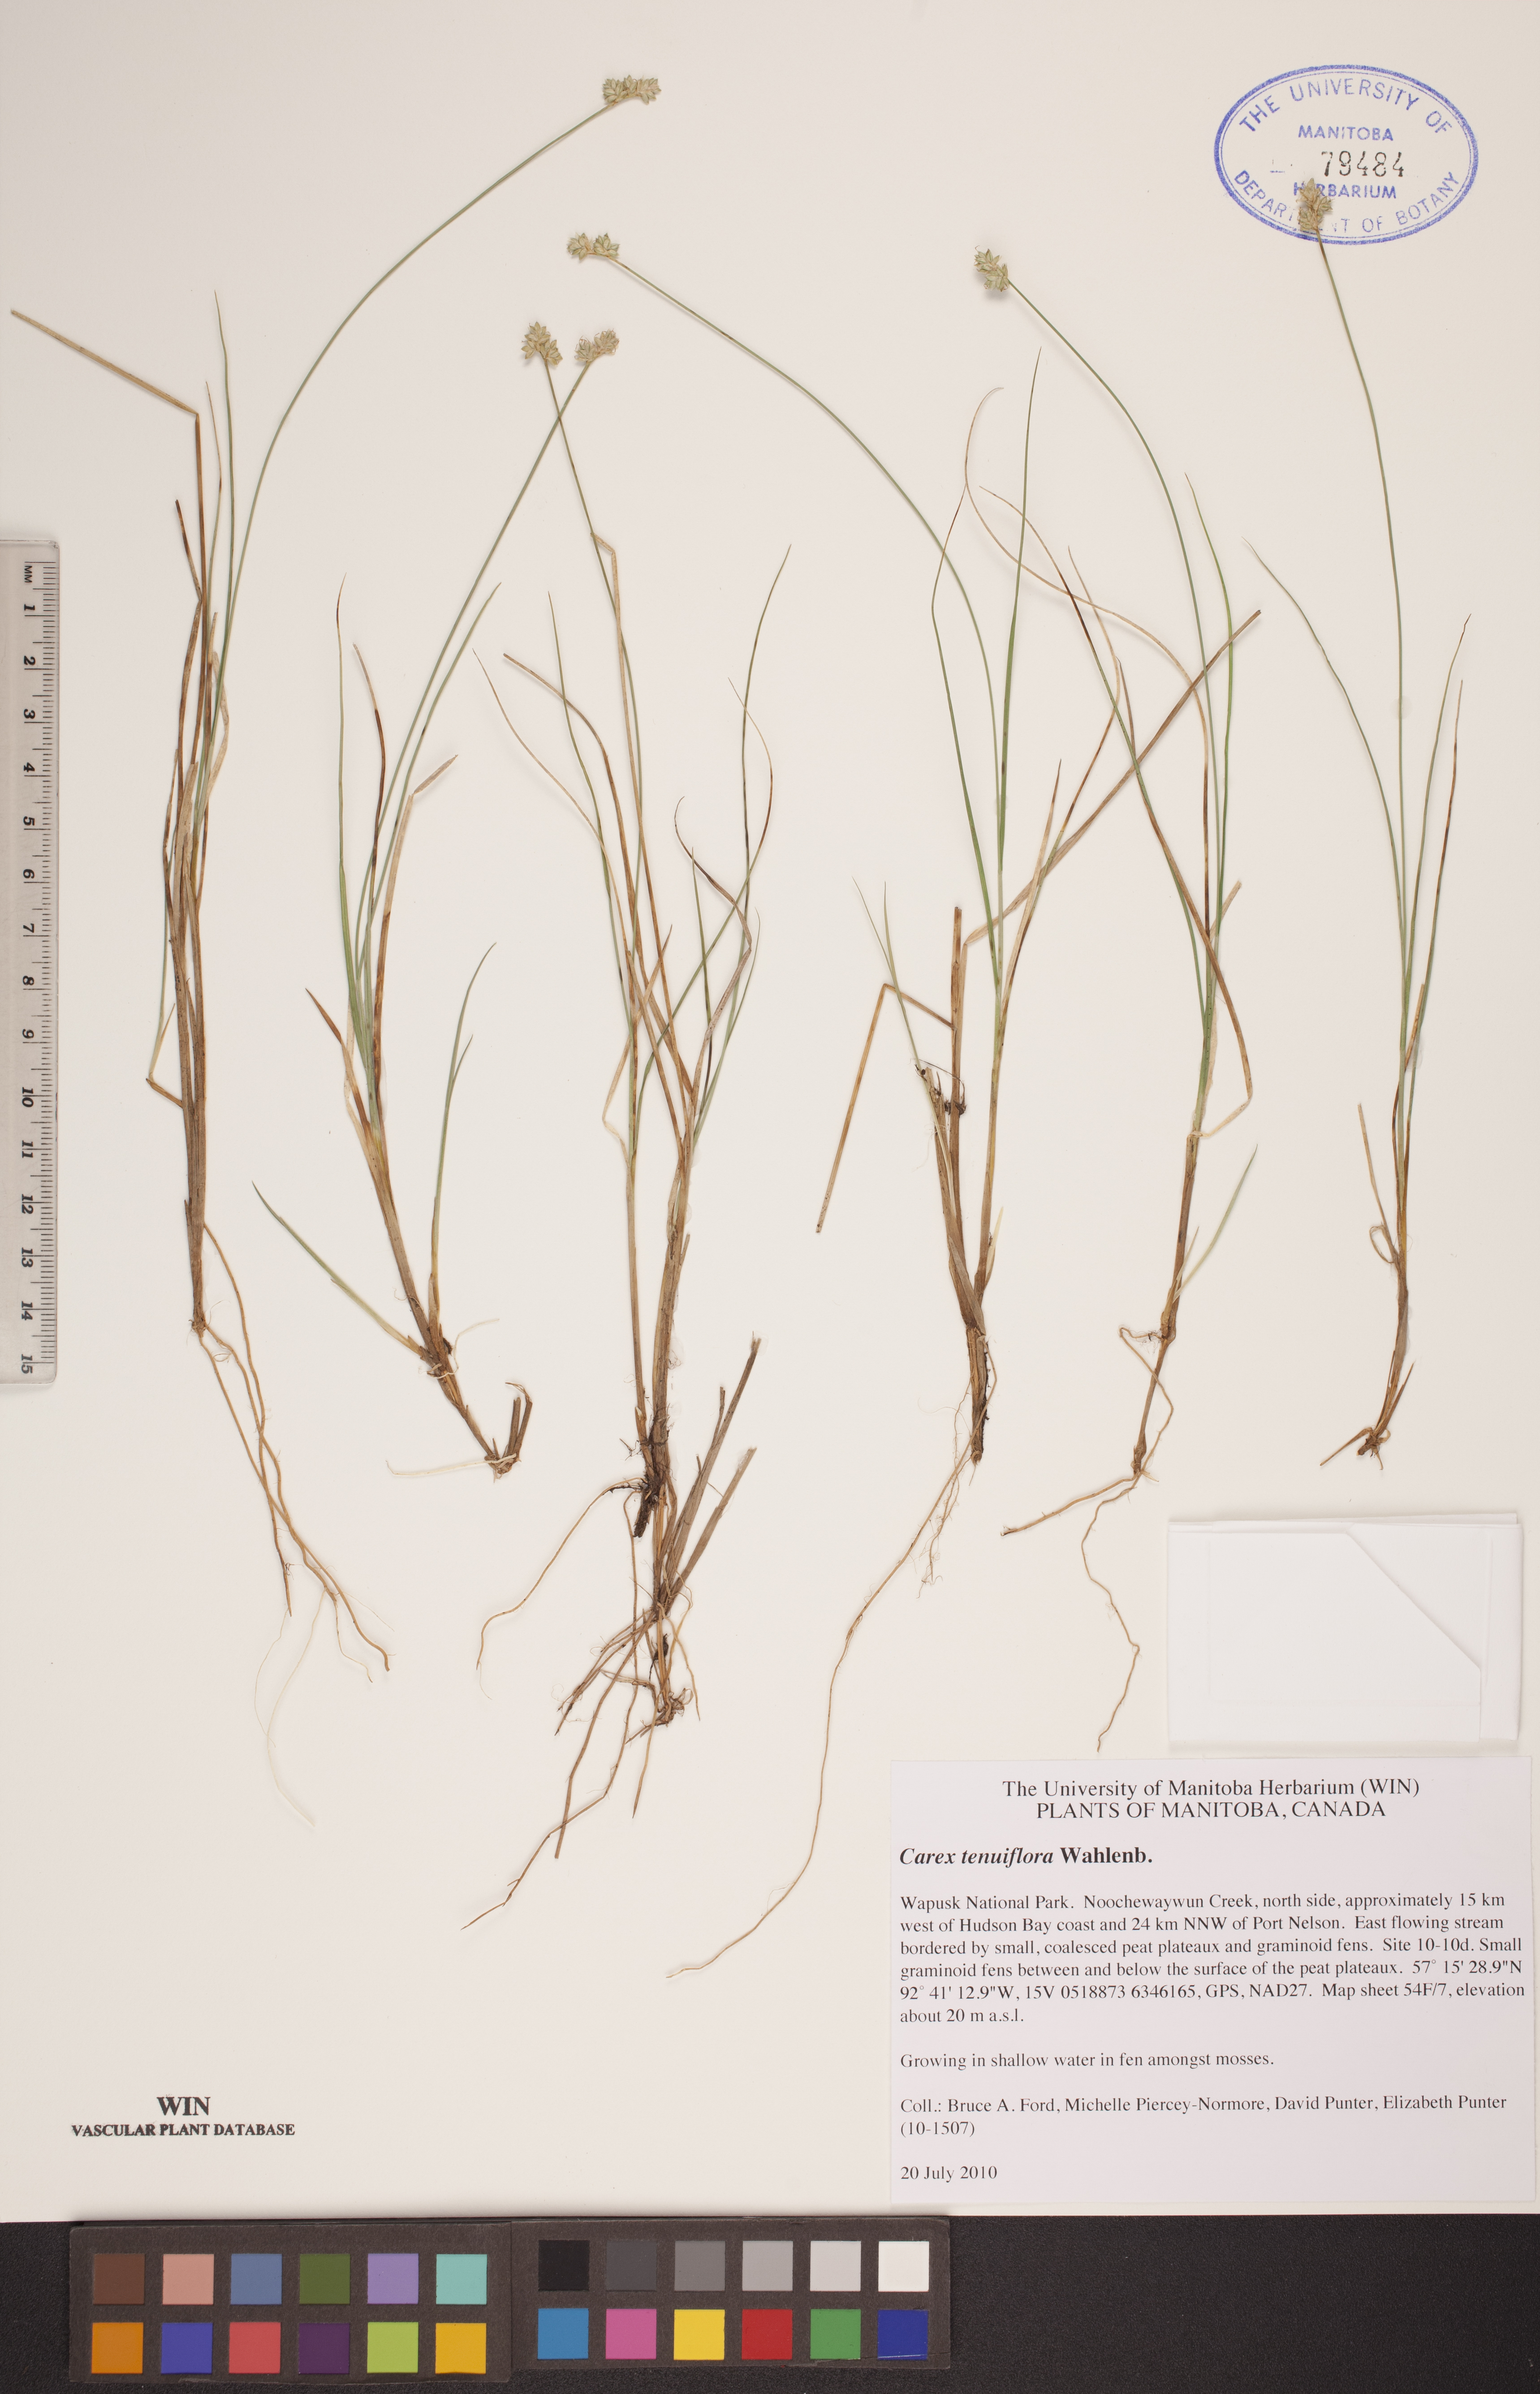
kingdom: Plantae
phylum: Tracheophyta
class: Liliopsida
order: Poales
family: Cyperaceae
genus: Carex
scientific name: Carex tenuiflora
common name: Sparse-flowered sedge
